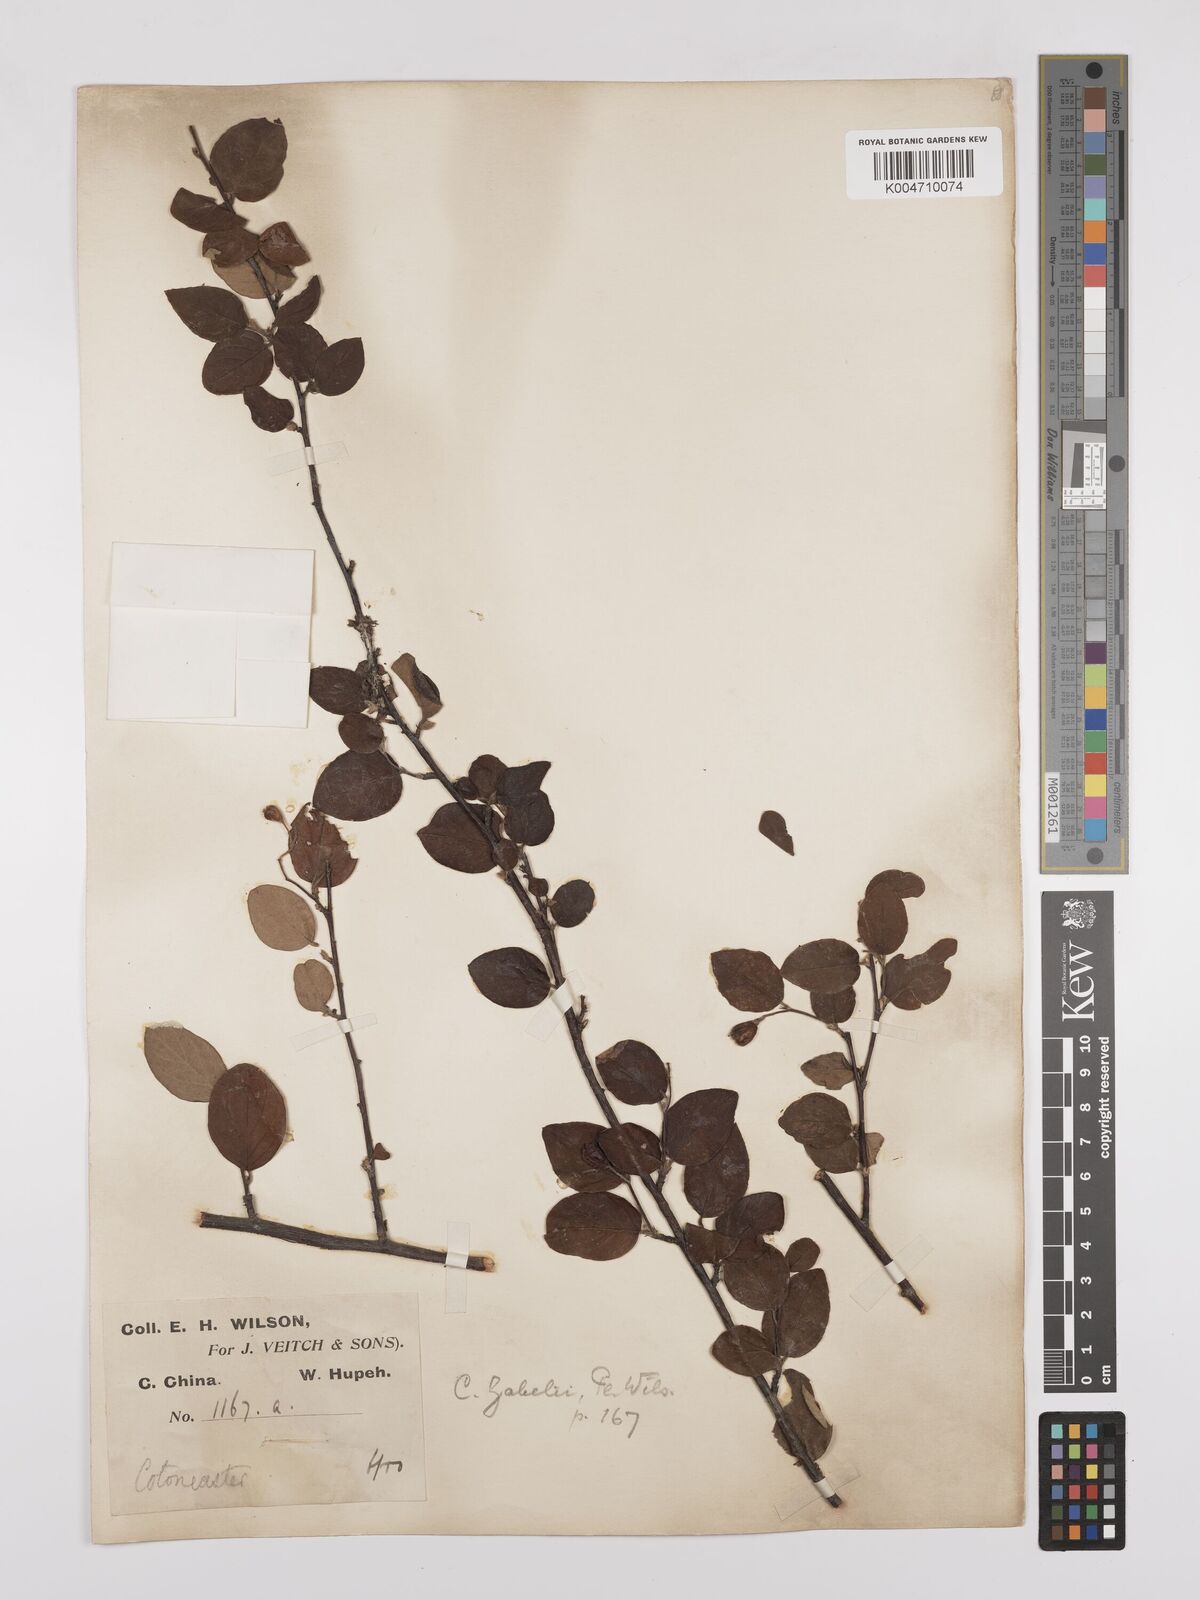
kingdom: Plantae
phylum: Tracheophyta
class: Magnoliopsida
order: Rosales
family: Rosaceae
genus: Cotoneaster
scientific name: Cotoneaster zabelii
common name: Cherryred cotoneaster
